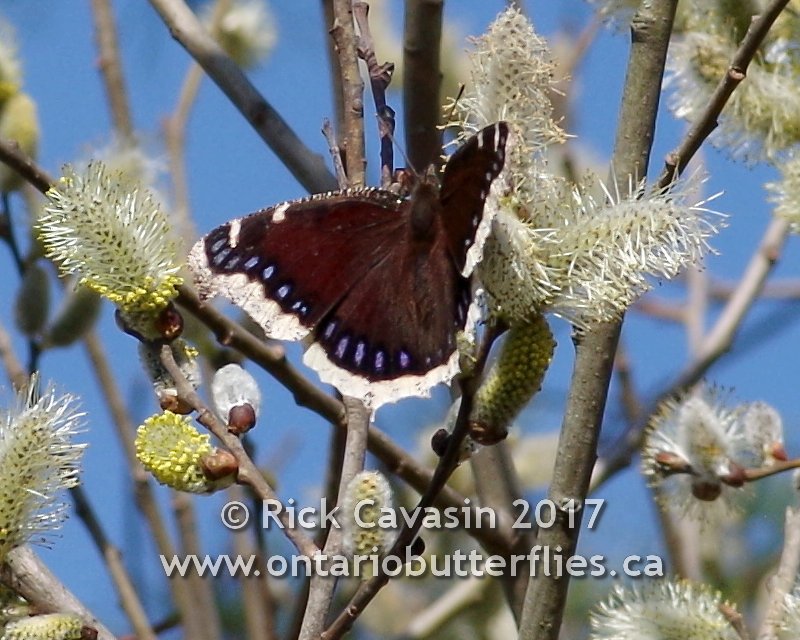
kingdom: Animalia
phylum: Arthropoda
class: Insecta
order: Lepidoptera
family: Nymphalidae
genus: Nymphalis
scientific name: Nymphalis antiopa
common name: Mourning Cloak
